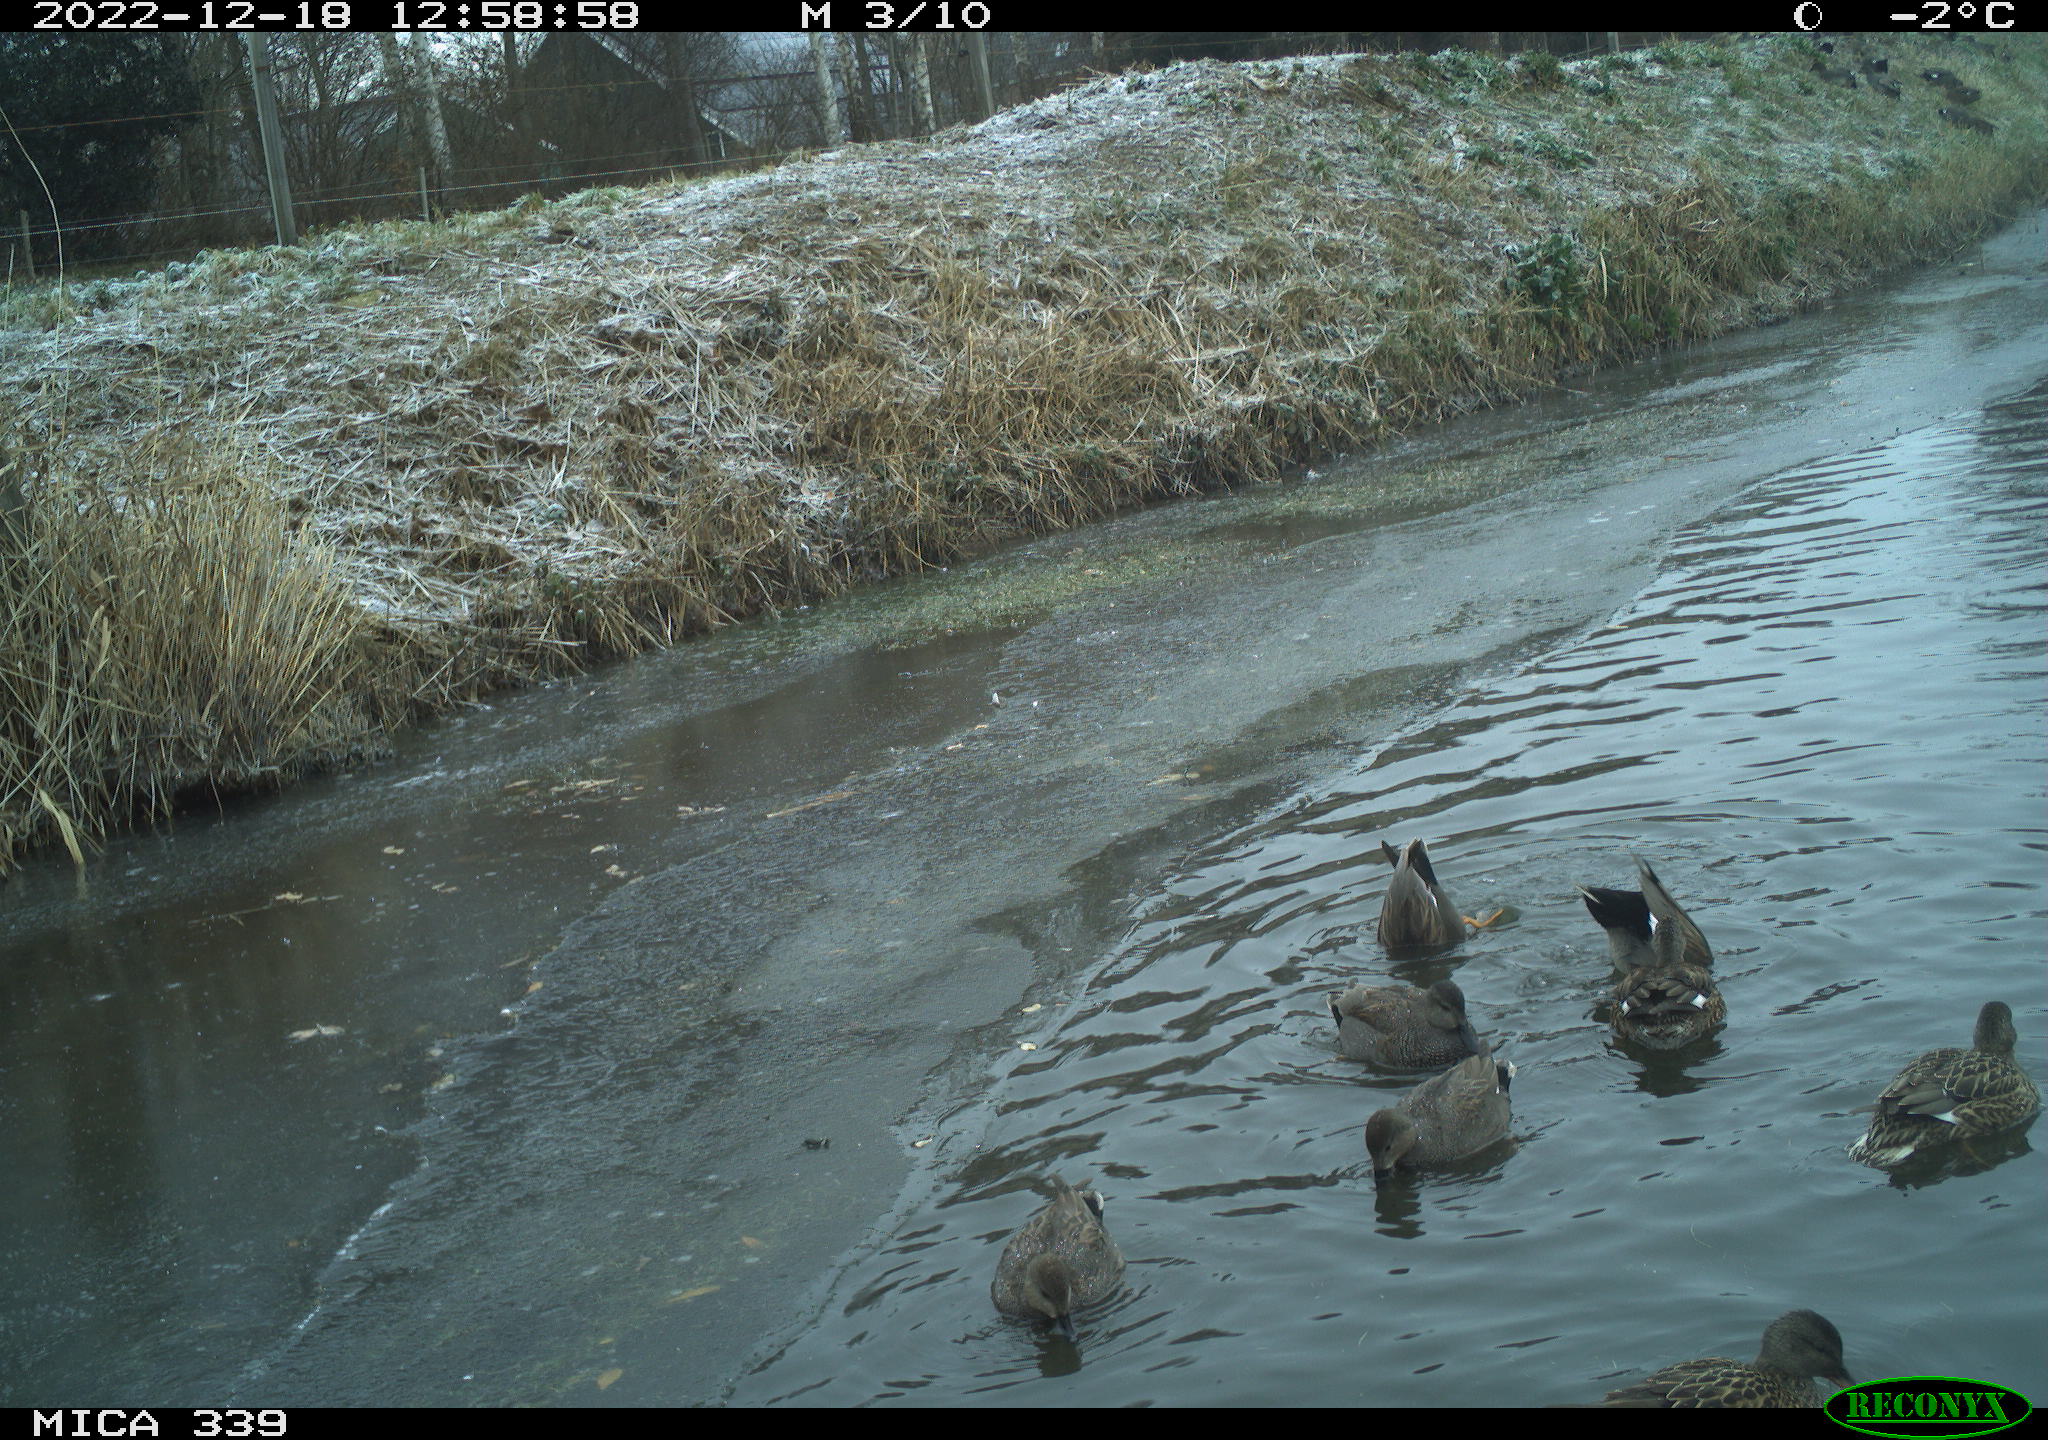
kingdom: Animalia
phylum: Chordata
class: Aves
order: Anseriformes
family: Anatidae
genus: Anas
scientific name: Anas
